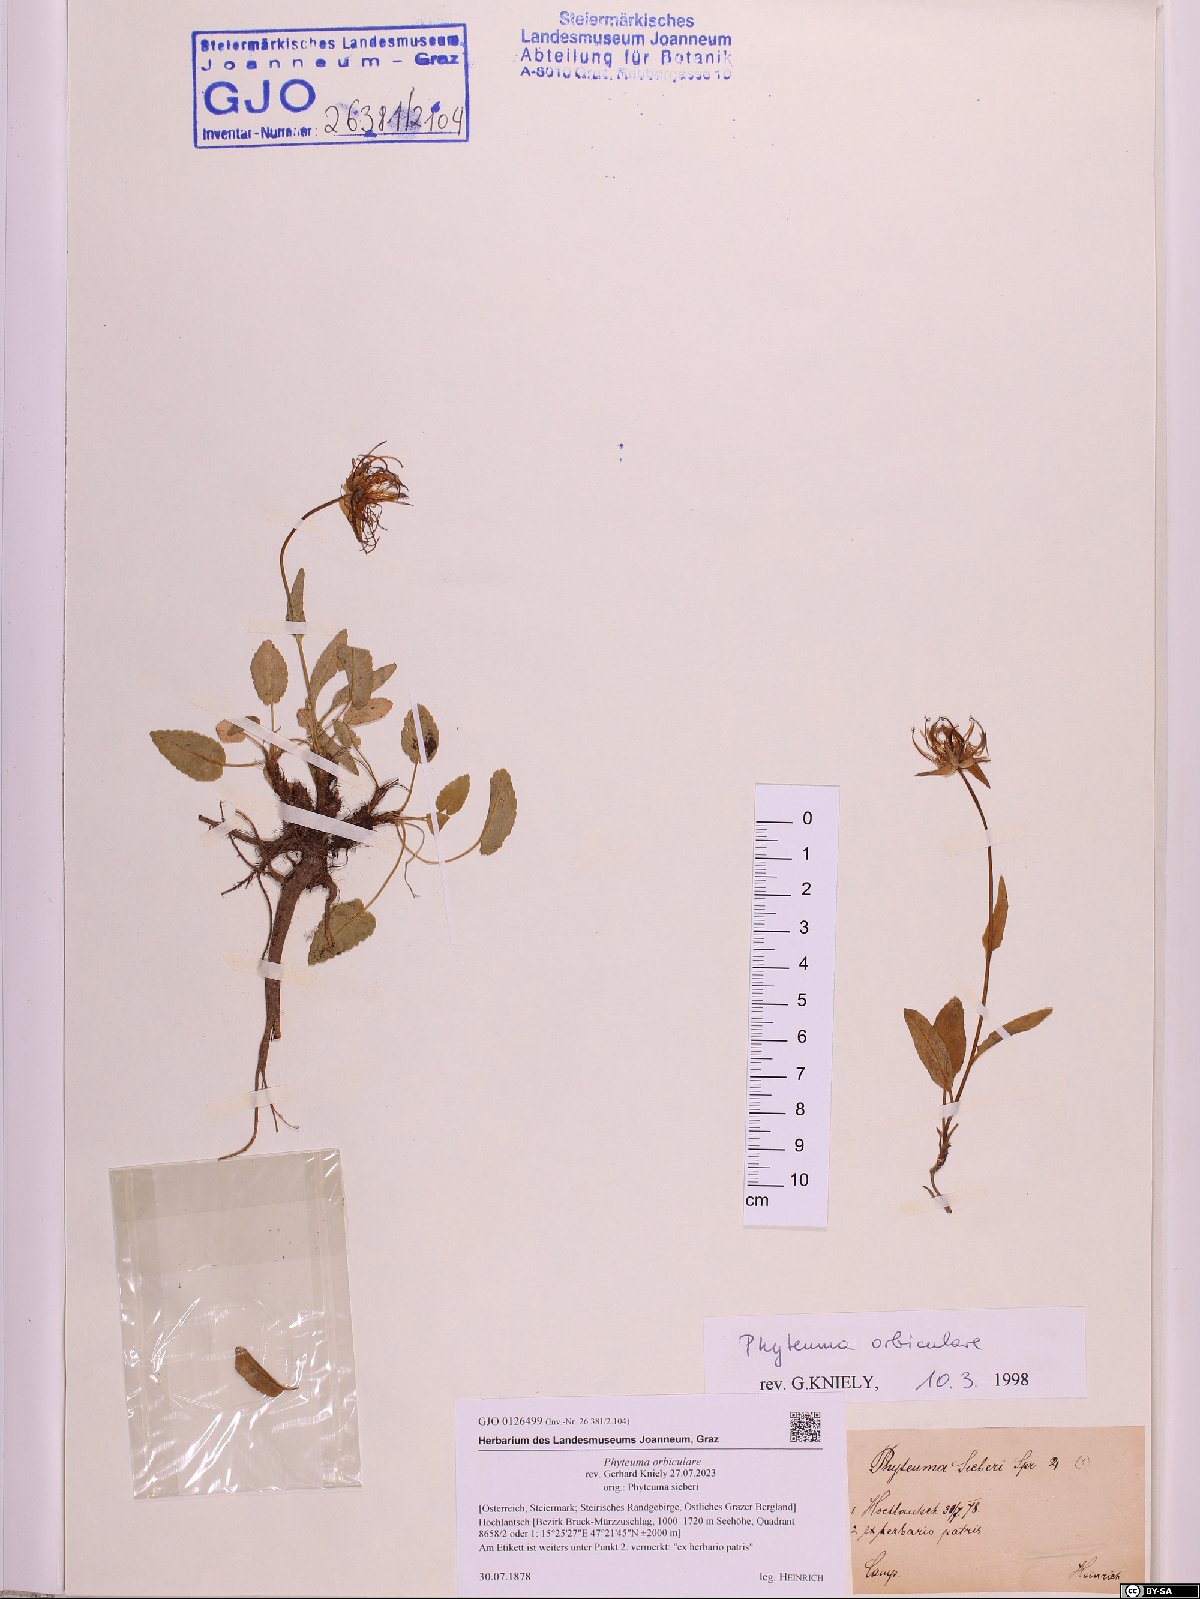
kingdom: Plantae
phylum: Tracheophyta
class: Magnoliopsida
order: Asterales
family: Campanulaceae
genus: Phyteuma
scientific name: Phyteuma orbiculare
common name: Round-headed rampion
